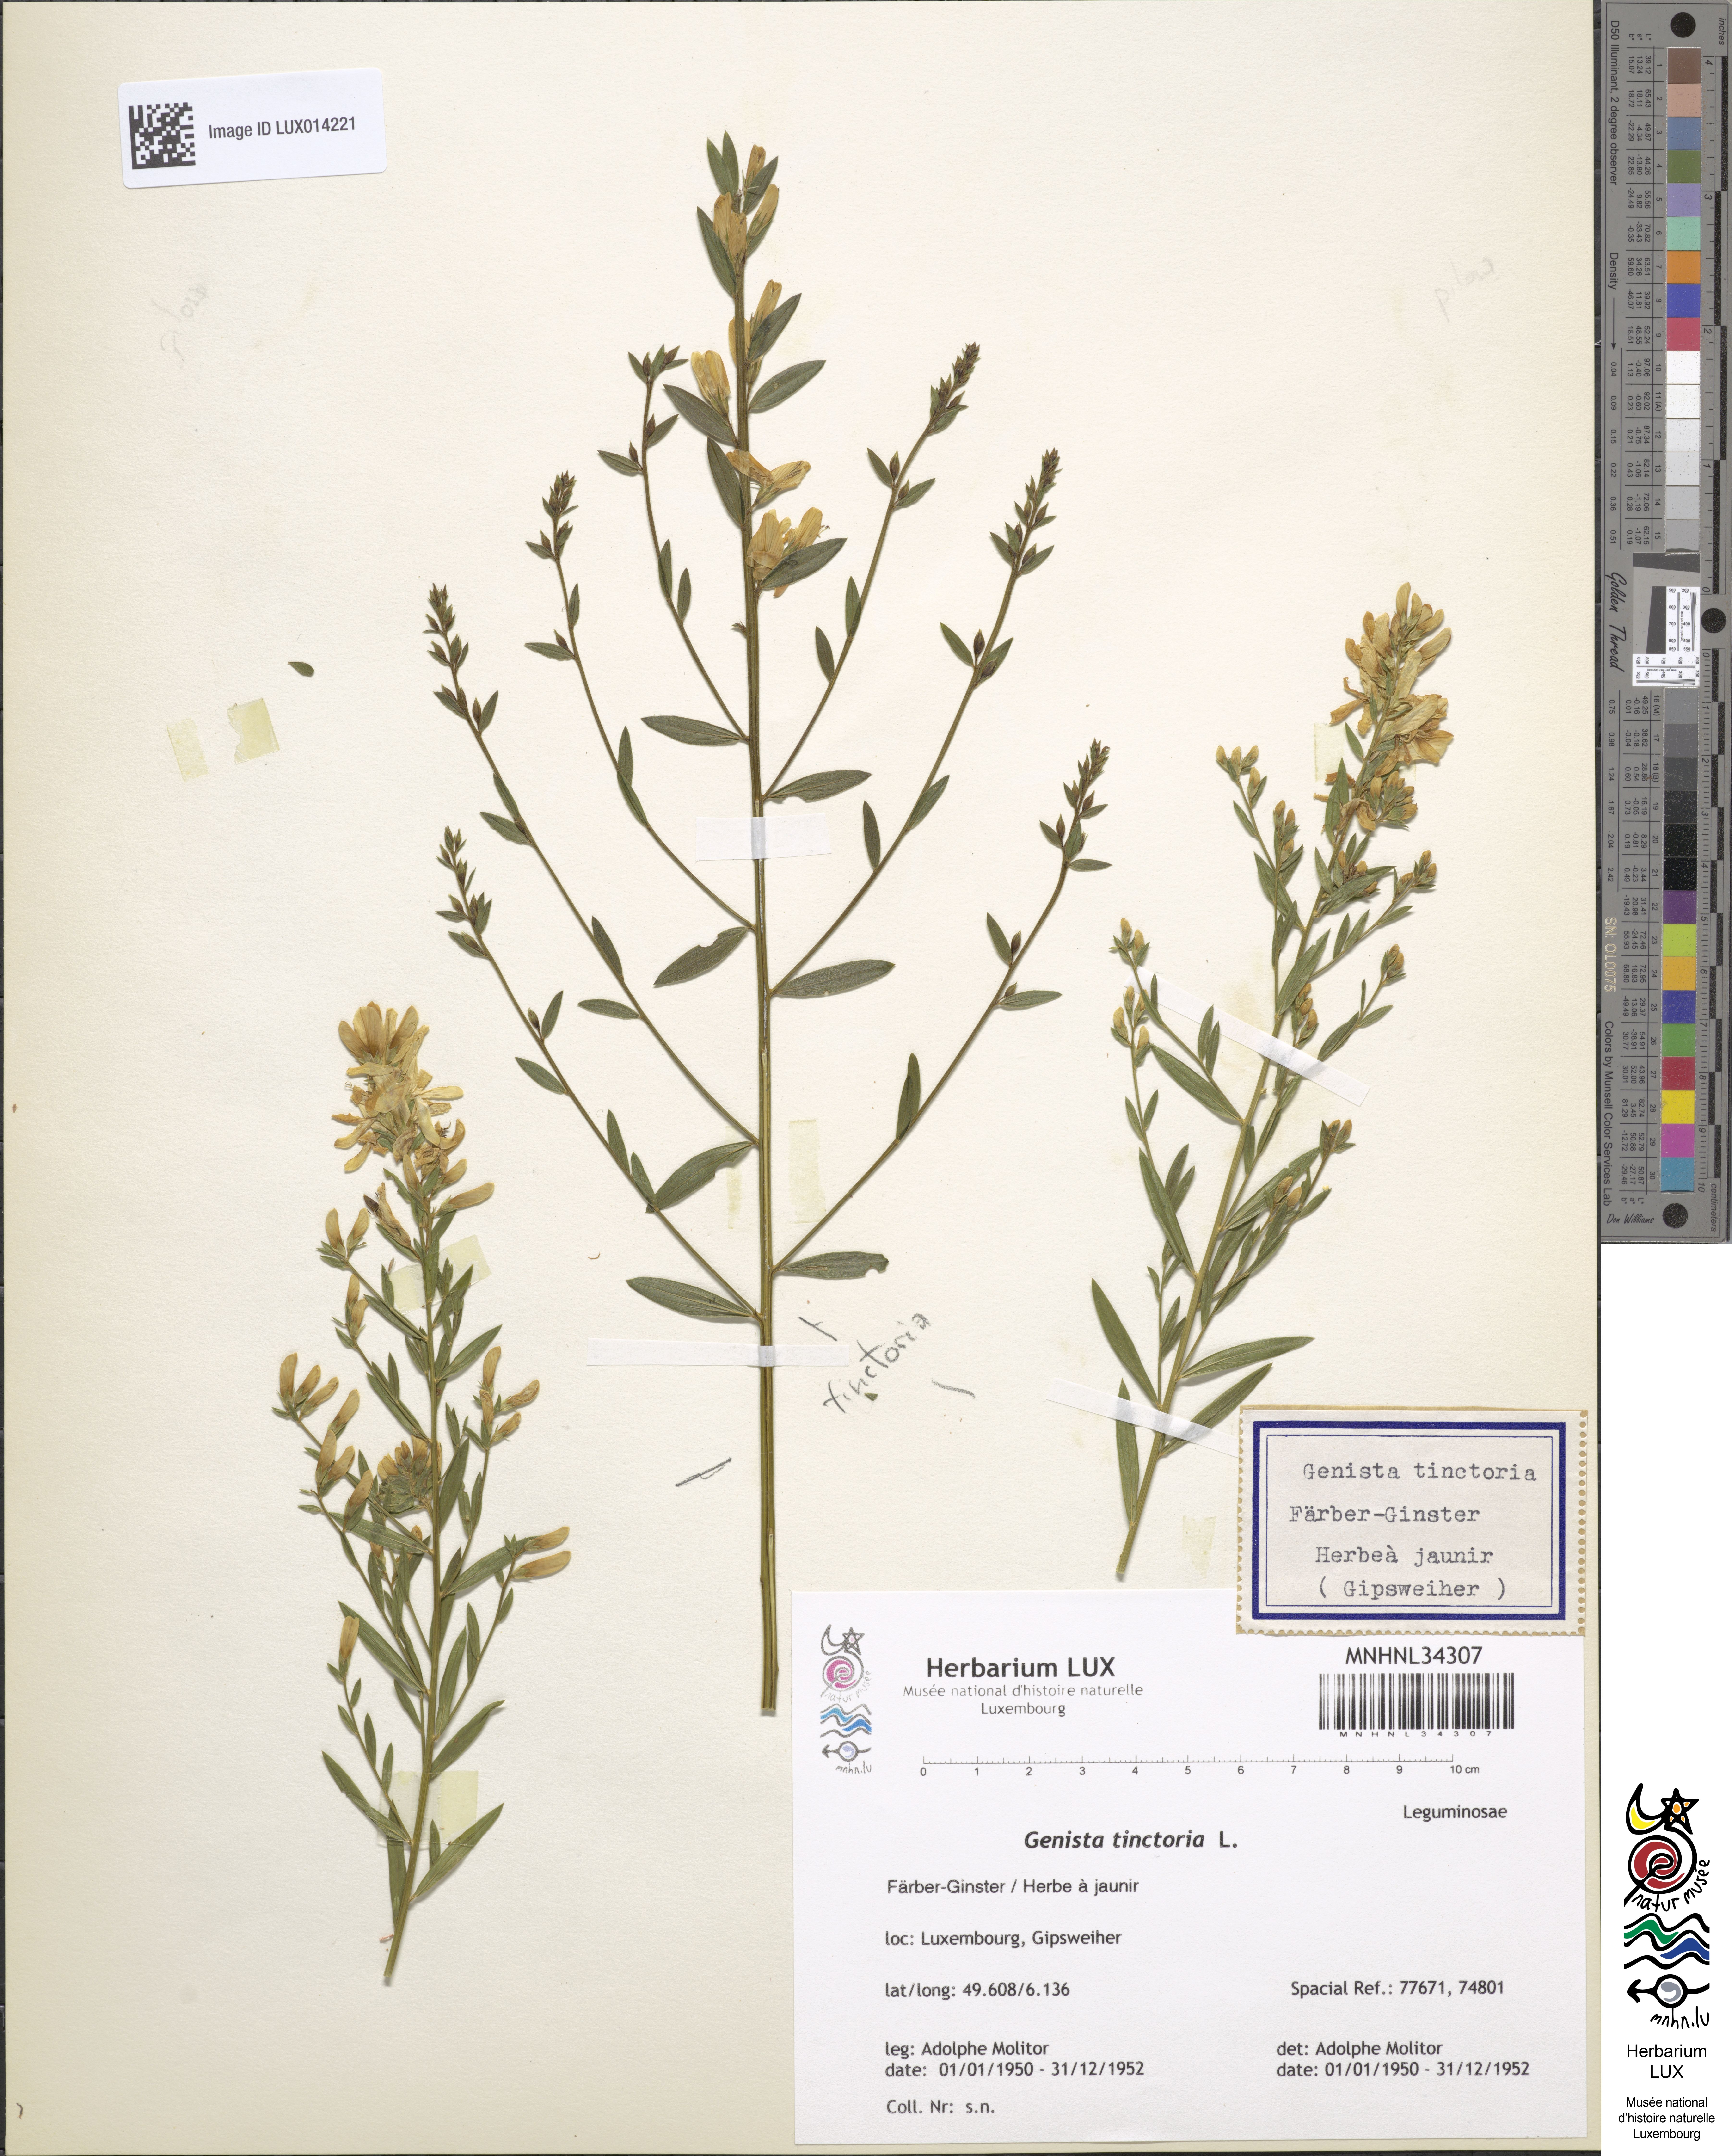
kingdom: Plantae
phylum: Tracheophyta
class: Magnoliopsida
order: Fabales
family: Fabaceae
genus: Genista
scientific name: Genista tinctoria
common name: Dyer's greenweed
